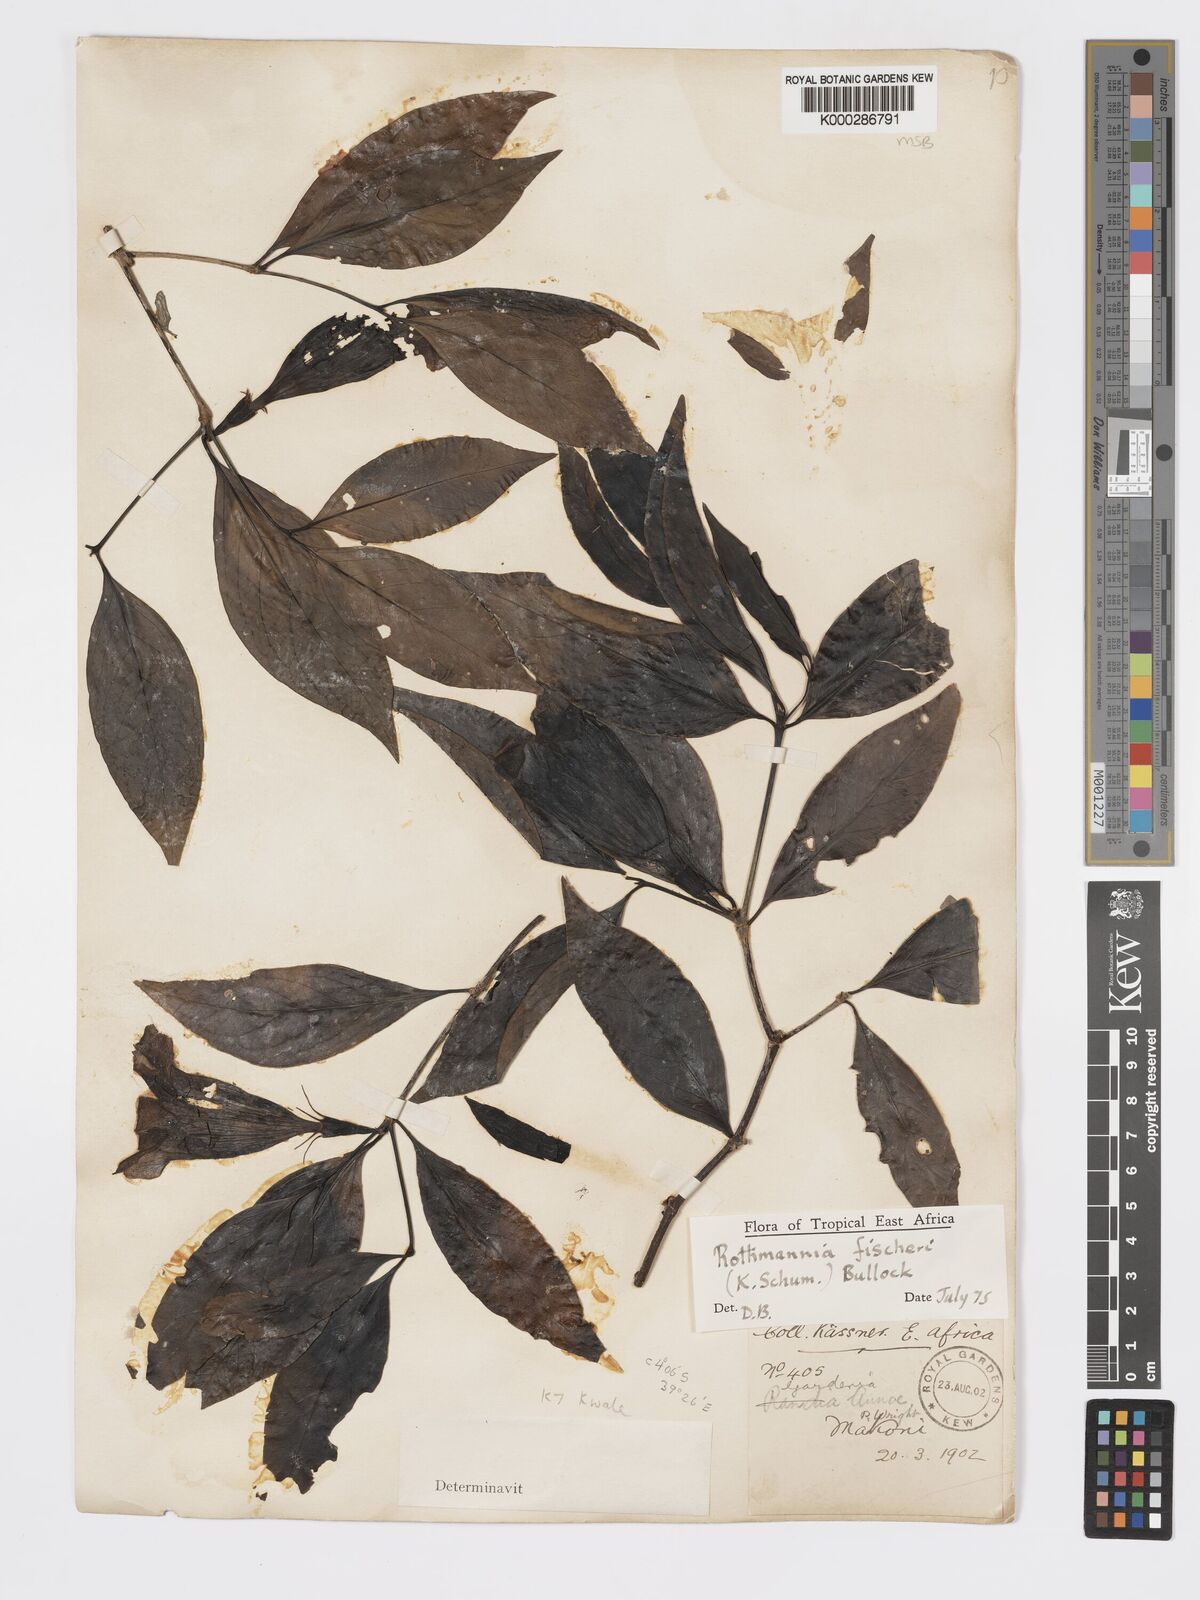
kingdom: Plantae
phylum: Tracheophyta
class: Magnoliopsida
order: Gentianales
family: Rubiaceae
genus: Rothmannia
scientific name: Rothmannia ravae
